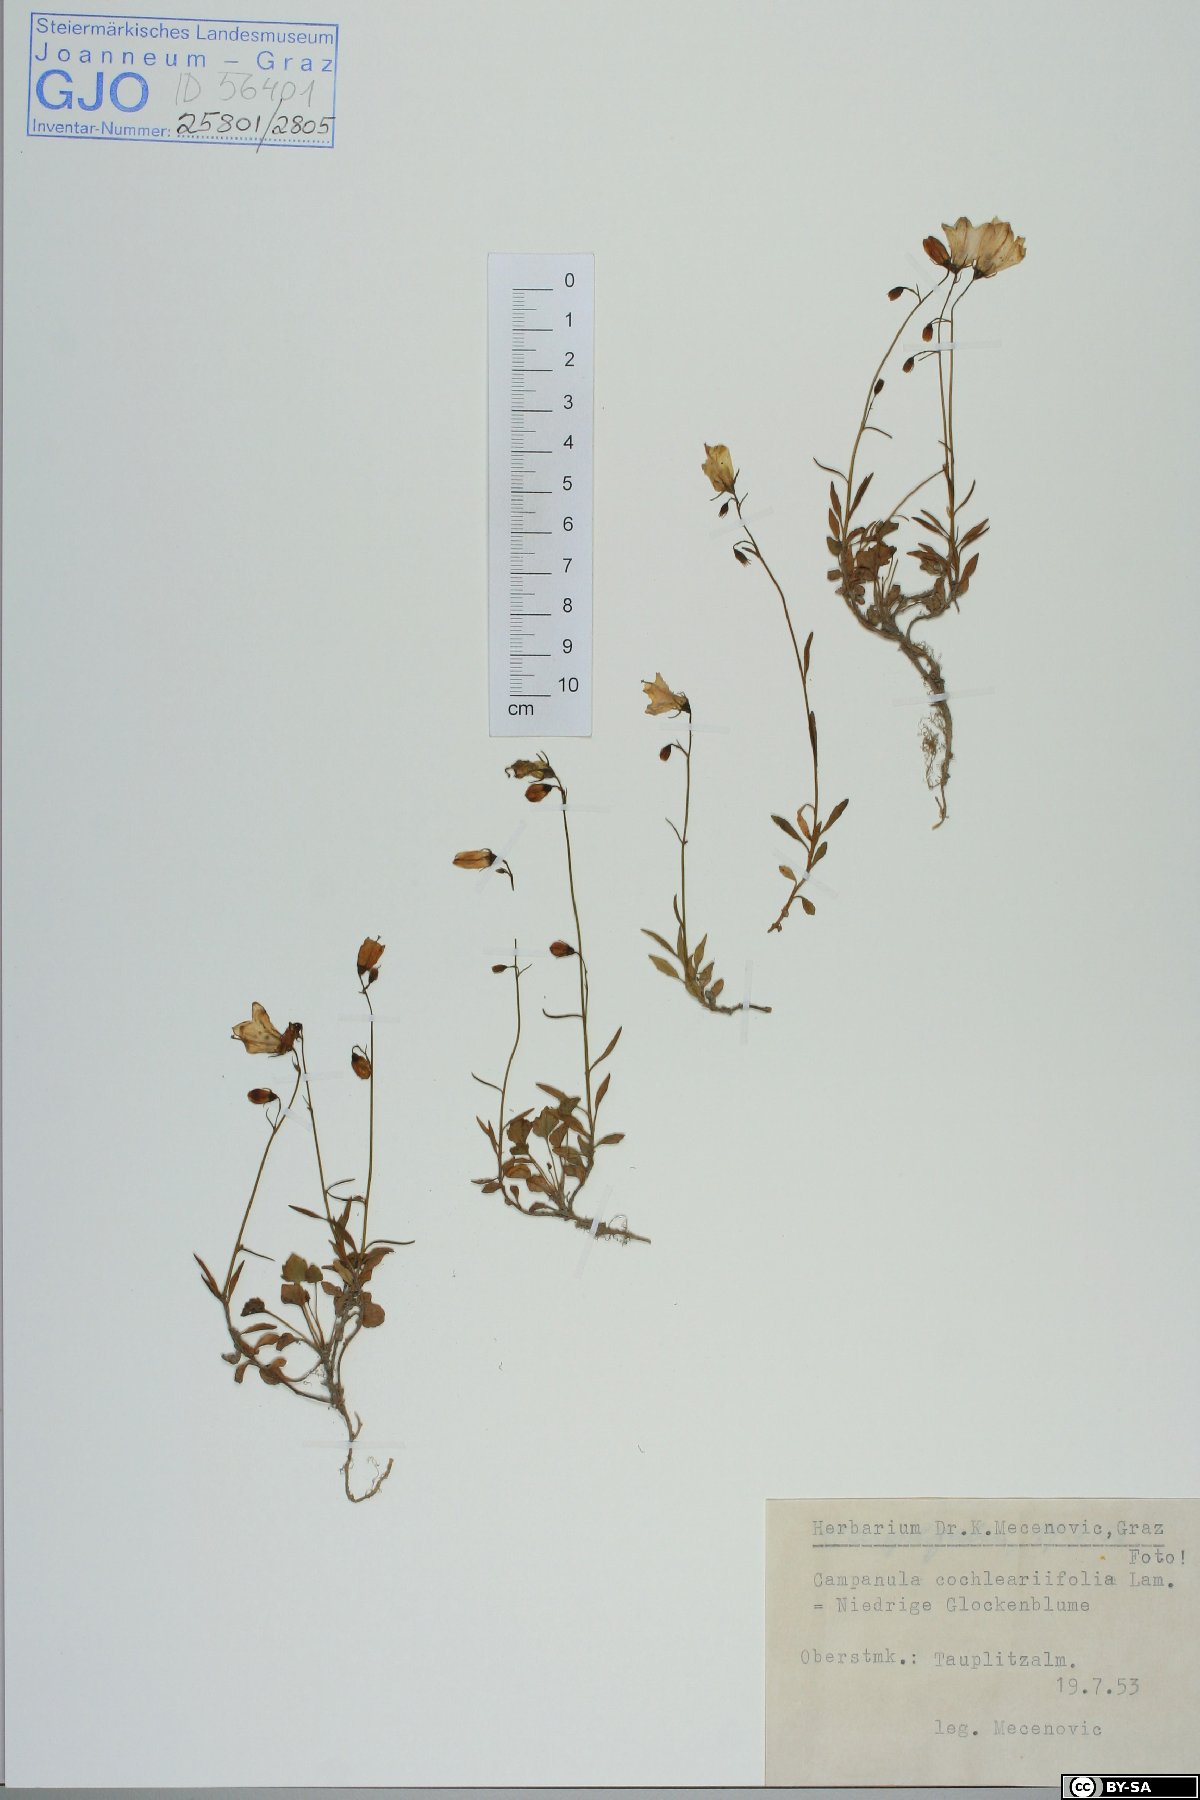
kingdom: Plantae
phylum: Tracheophyta
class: Magnoliopsida
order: Asterales
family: Campanulaceae
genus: Campanula
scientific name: Campanula cochleariifolia
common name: Fairies'-thimbles
